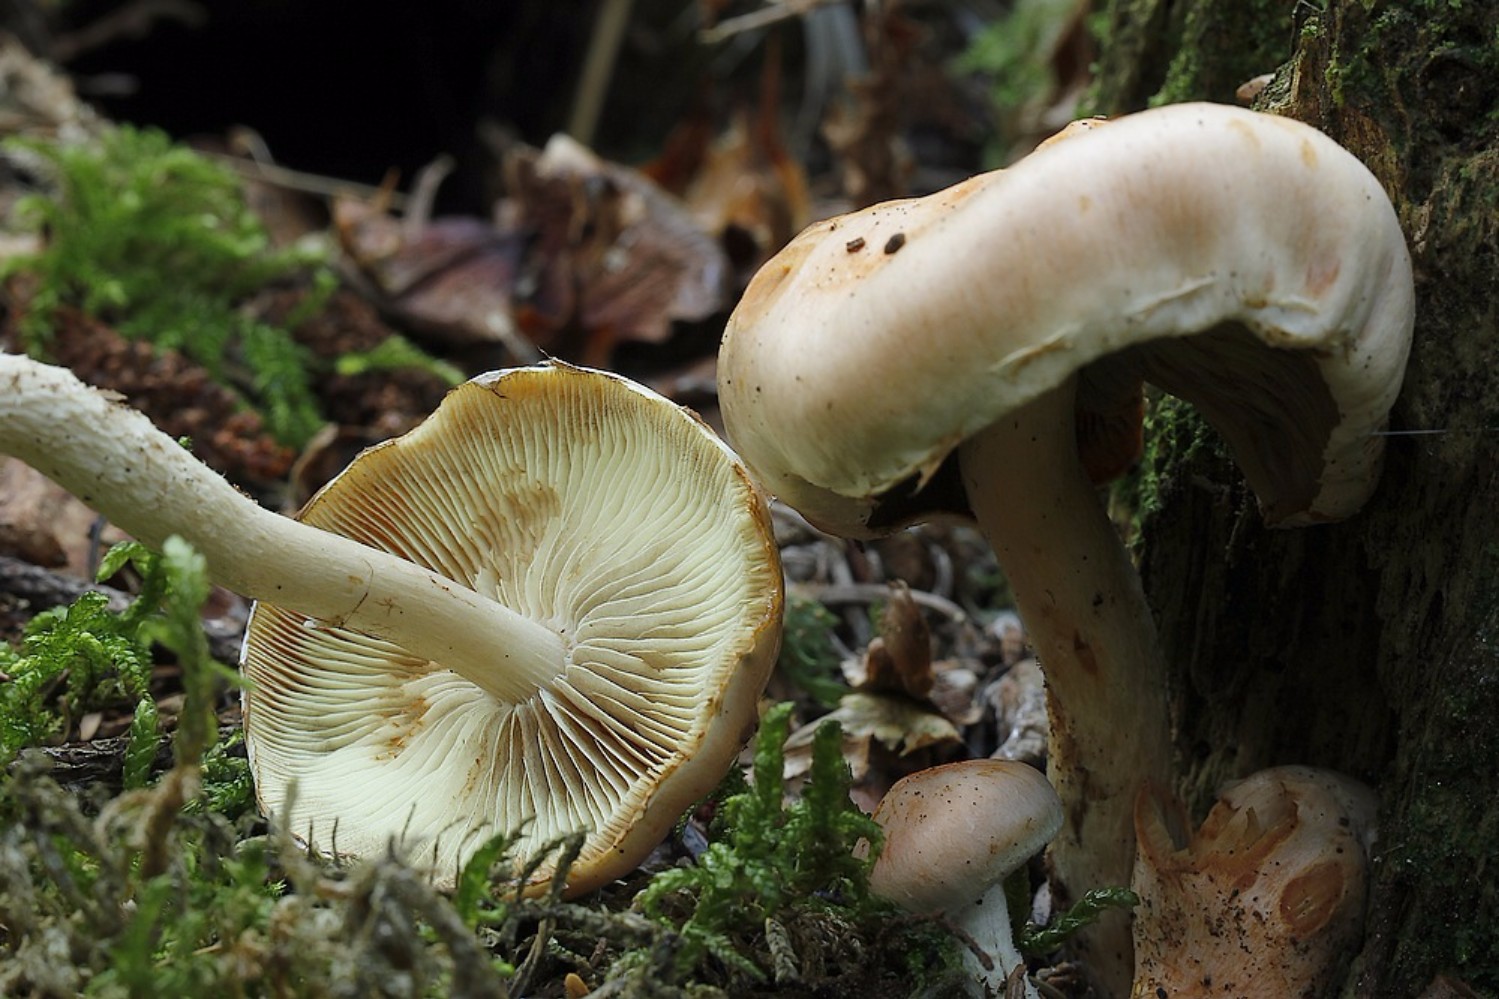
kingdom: Fungi
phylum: Basidiomycota
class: Agaricomycetes
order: Agaricales
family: Strophariaceae
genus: Pyrrhulomyces
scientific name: Pyrrhulomyces astragalinus
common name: safran-skælhat
